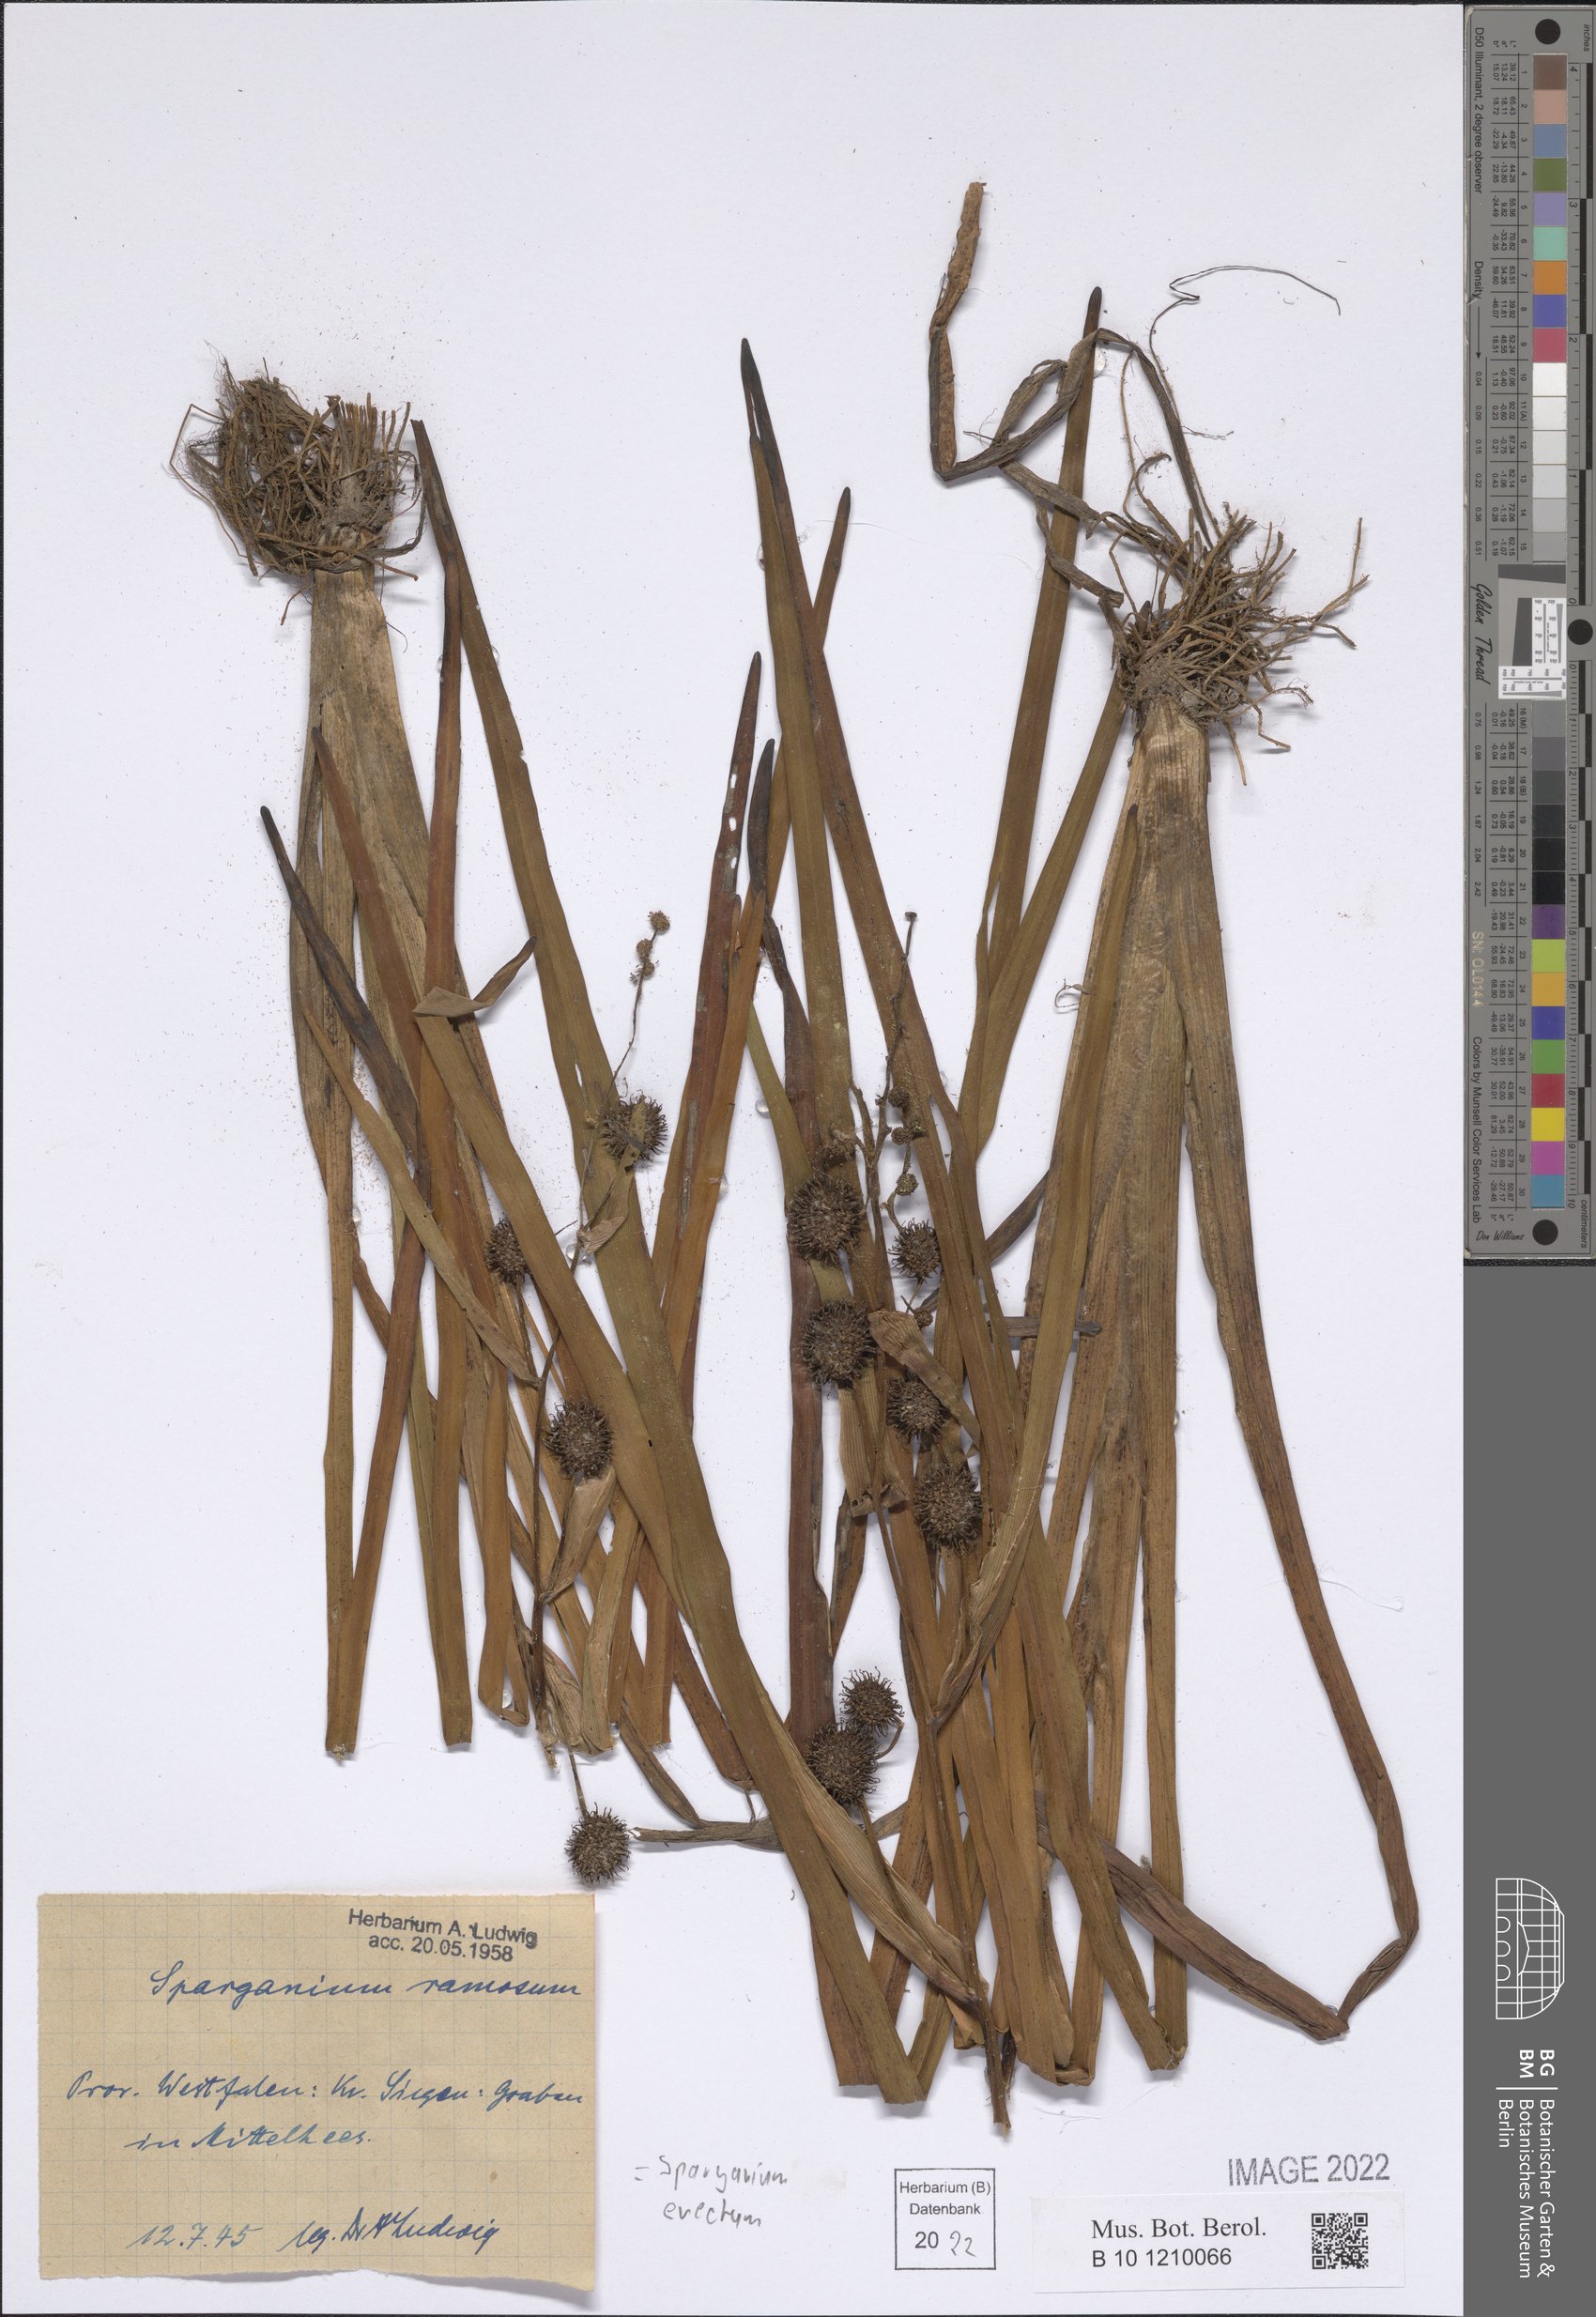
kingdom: Plantae
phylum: Tracheophyta
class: Liliopsida
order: Poales
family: Typhaceae
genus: Sparganium
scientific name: Sparganium erectum
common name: Branched bur-reed
